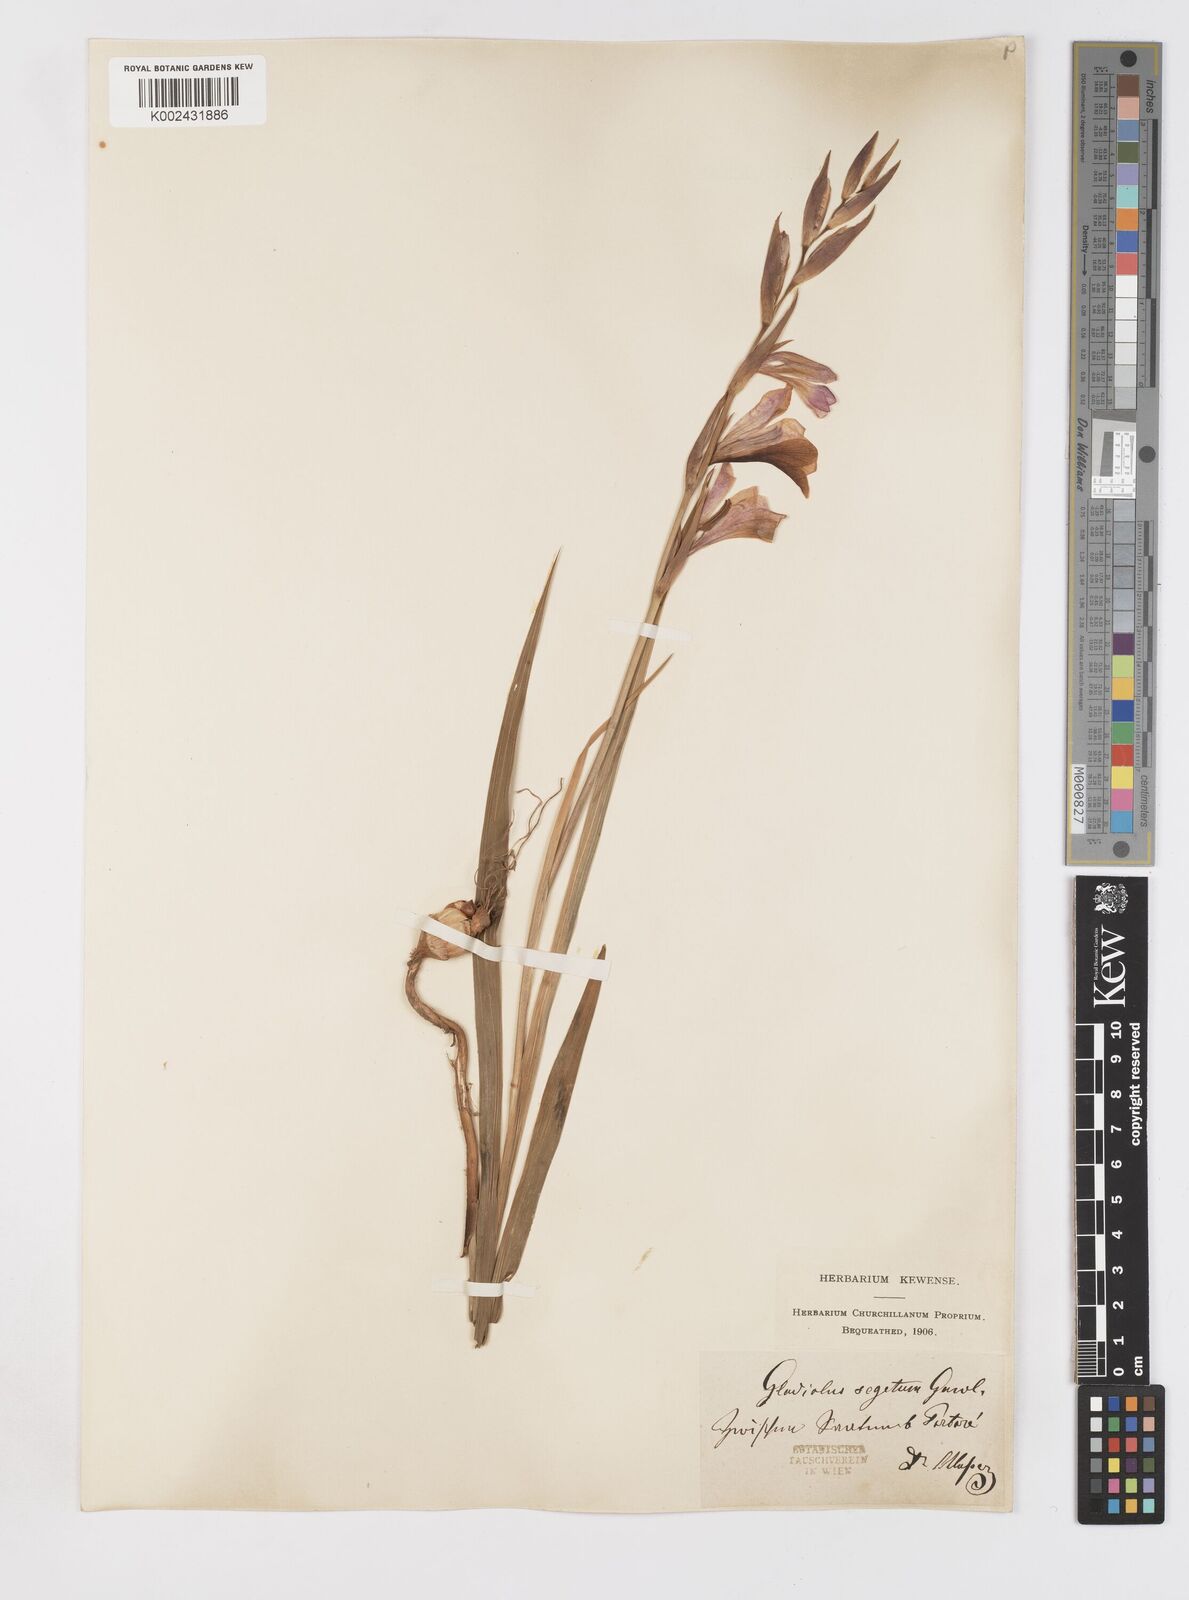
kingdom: Plantae
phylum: Tracheophyta
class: Liliopsida
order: Asparagales
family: Iridaceae
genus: Gladiolus
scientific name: Gladiolus italicus
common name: Field gladiolus
